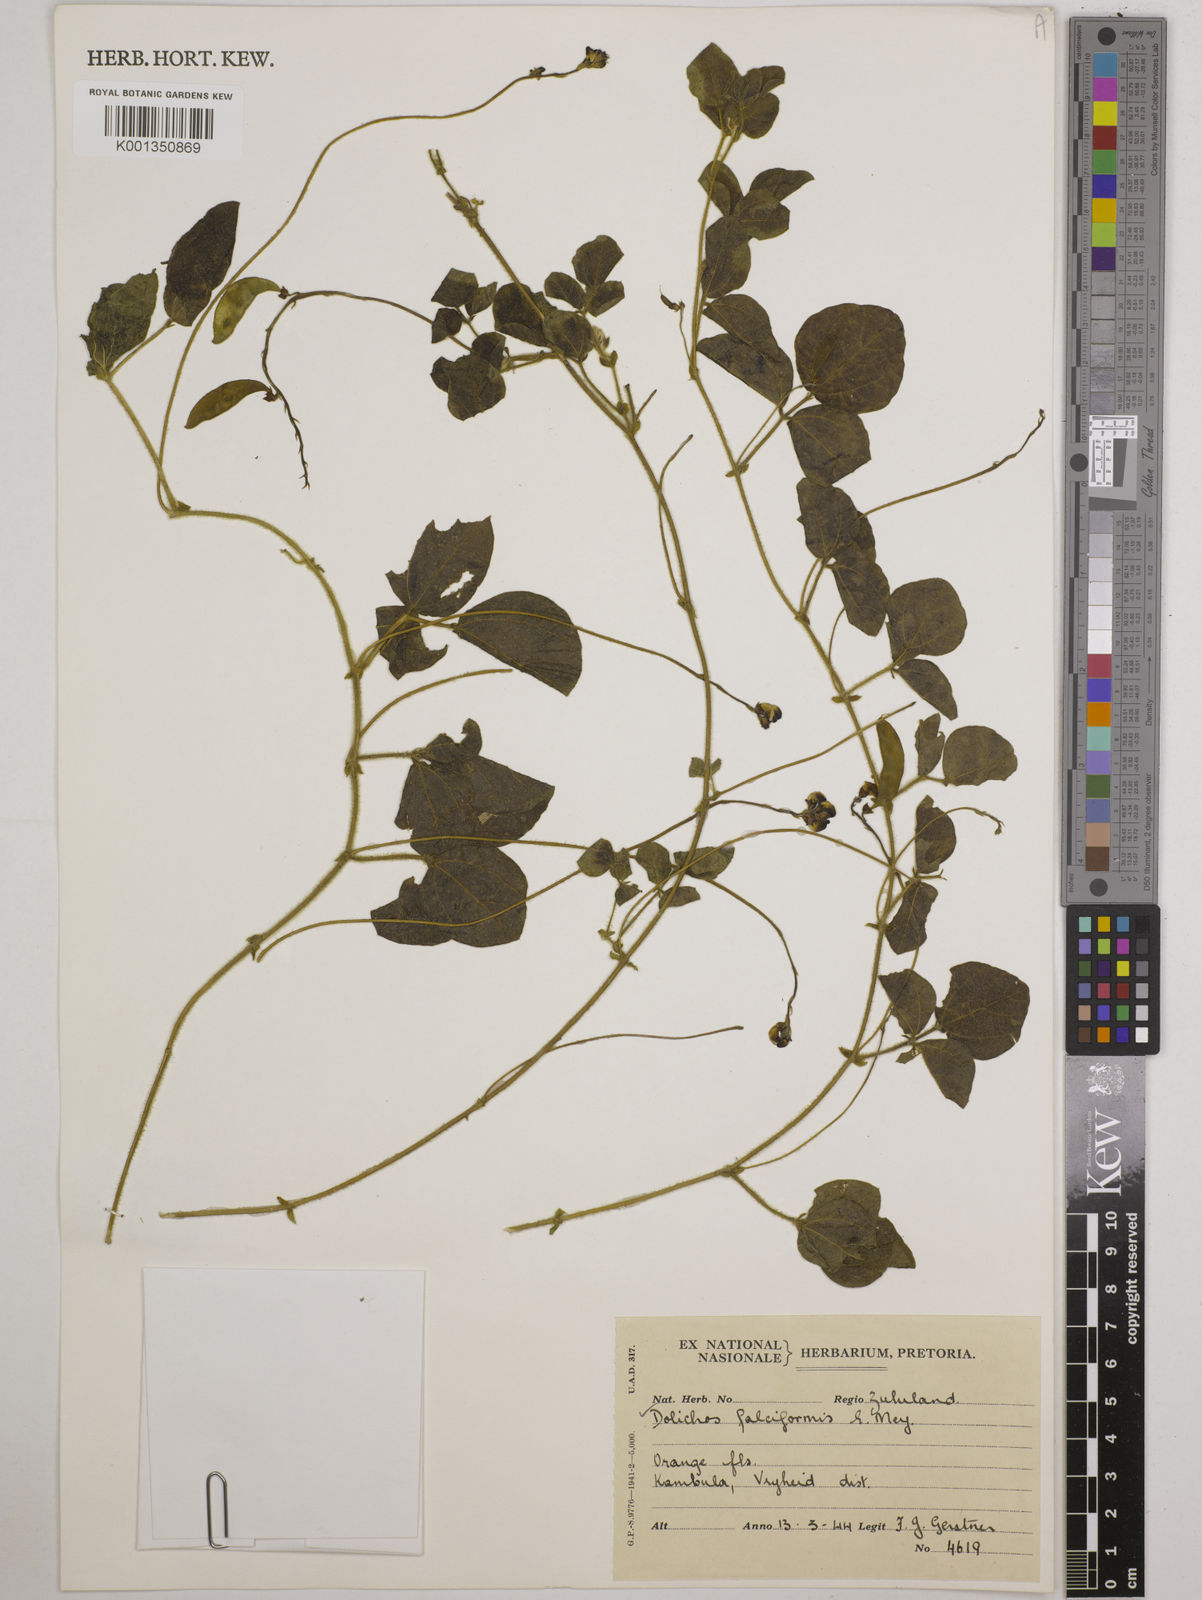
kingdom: Plantae
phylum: Tracheophyta
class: Magnoliopsida
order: Fabales
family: Fabaceae
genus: Dolichos
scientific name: Dolichos falciformis
